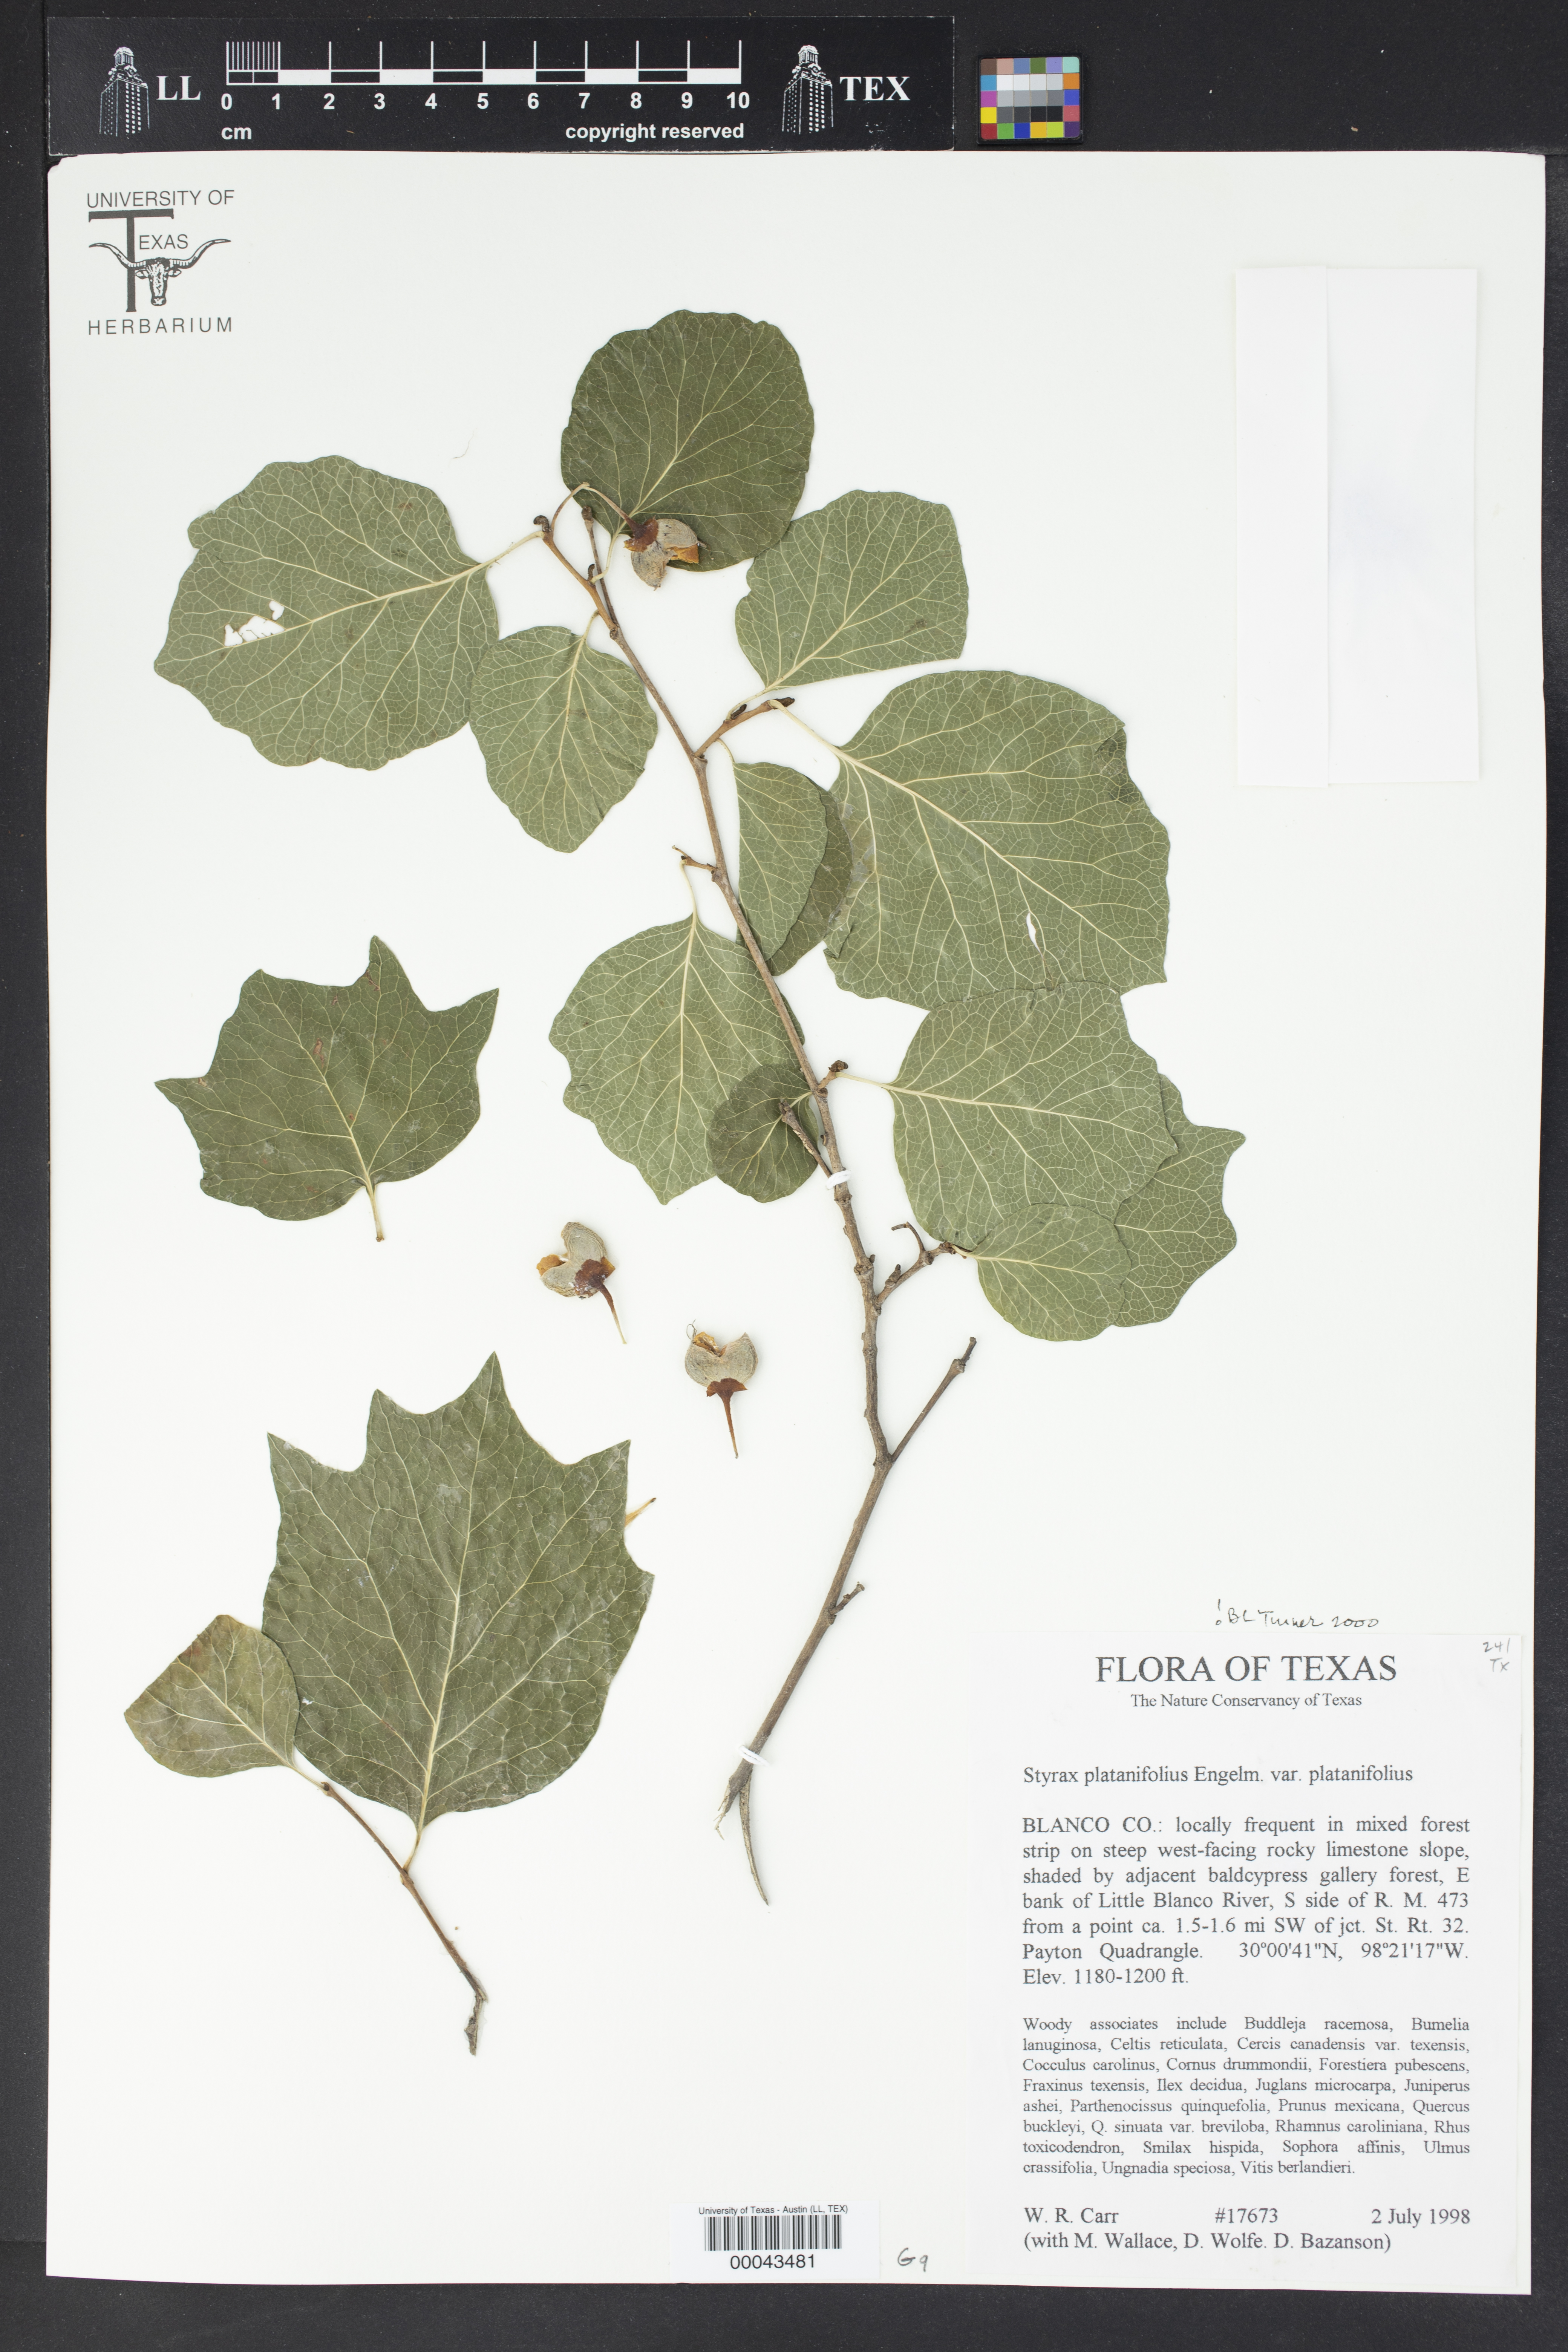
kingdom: Plantae
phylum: Tracheophyta
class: Magnoliopsida
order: Ericales
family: Styracaceae
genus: Styrax
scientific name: Styrax platanifolius
